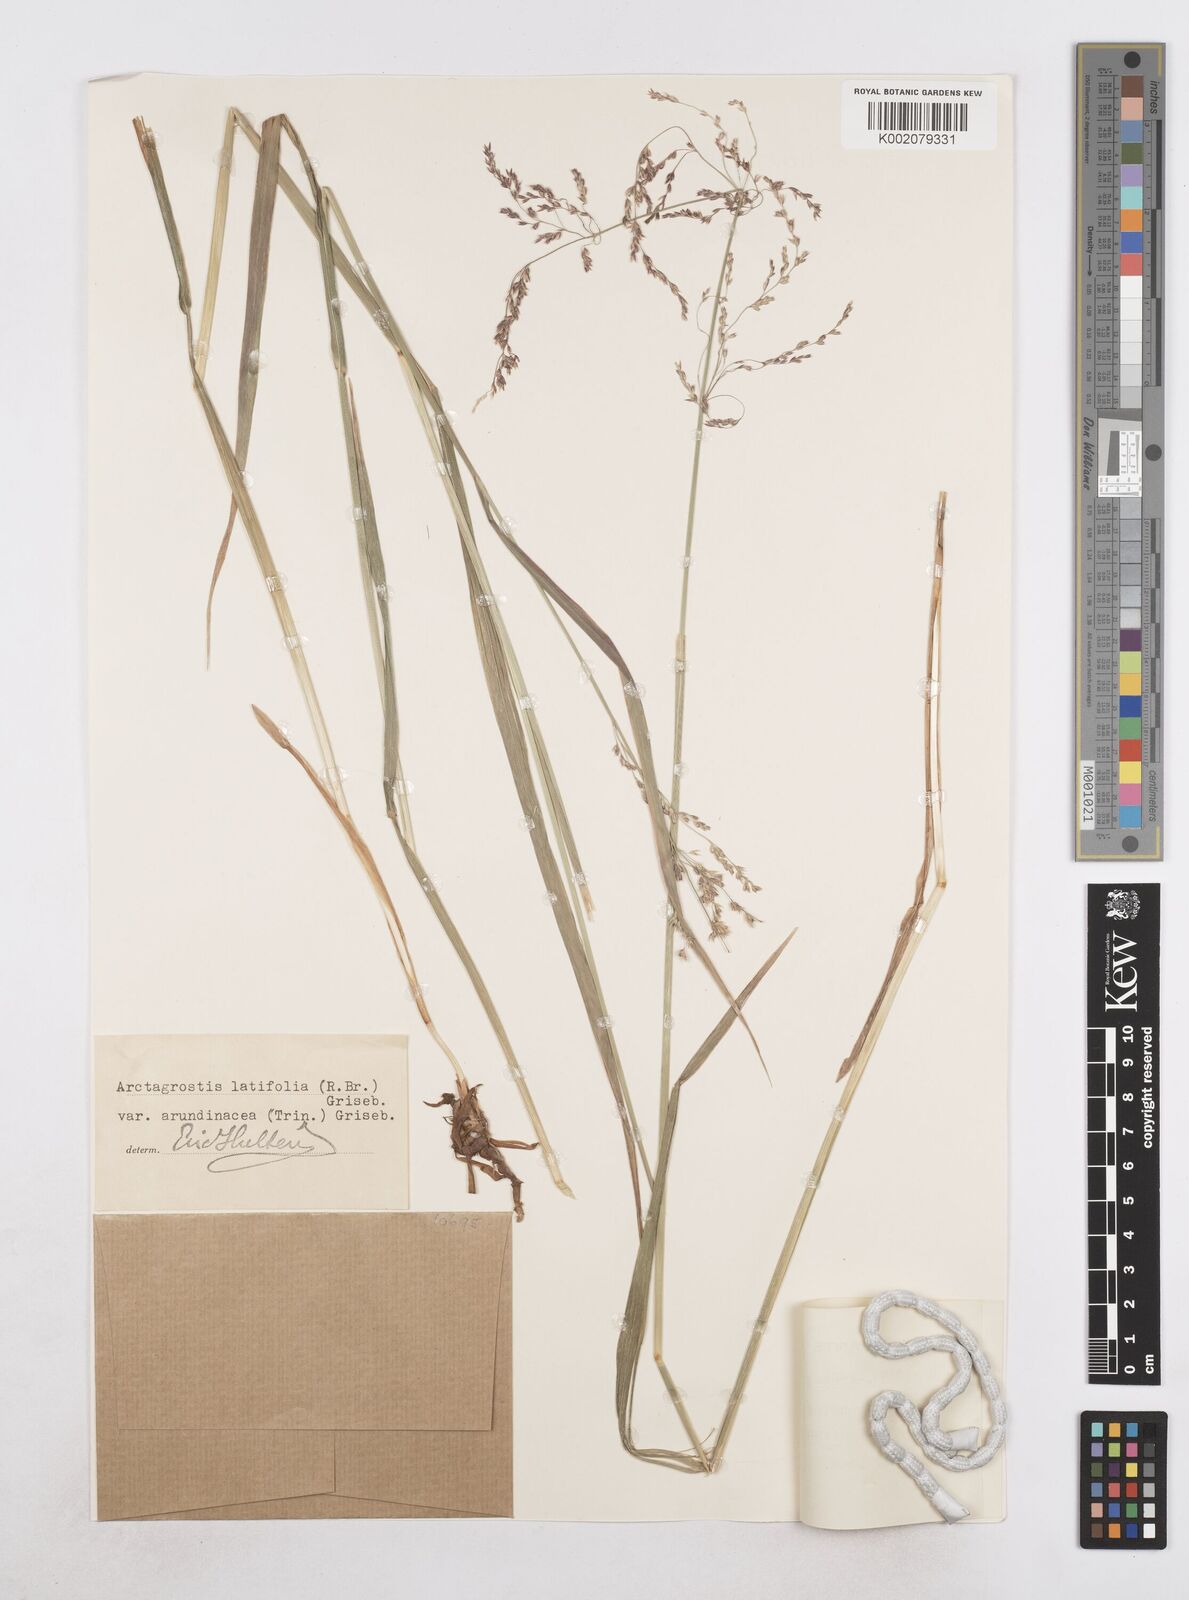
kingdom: Plantae
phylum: Tracheophyta
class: Liliopsida
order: Poales
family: Poaceae
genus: Arctagrostis
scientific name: Arctagrostis arundinacea
